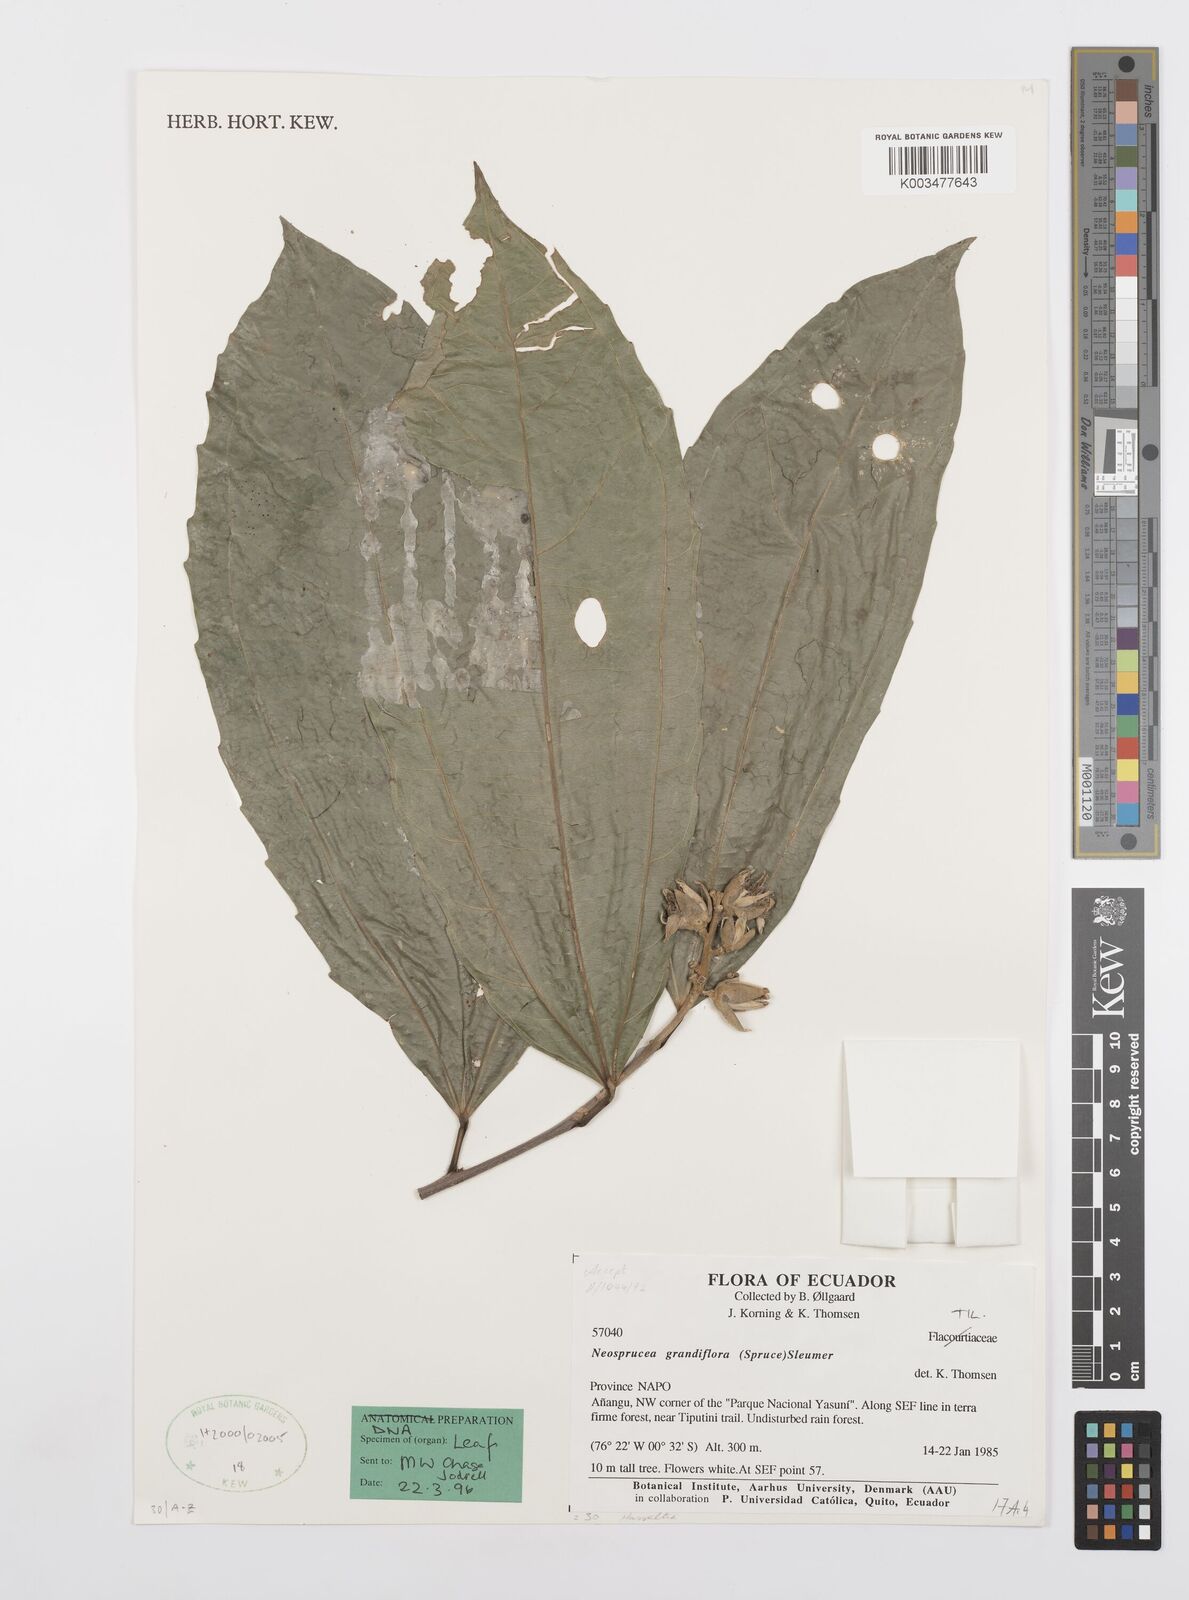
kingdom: Plantae
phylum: Tracheophyta
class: Magnoliopsida
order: Malpighiales
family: Salicaceae
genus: Neosprucea
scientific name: Neosprucea grandiflora
